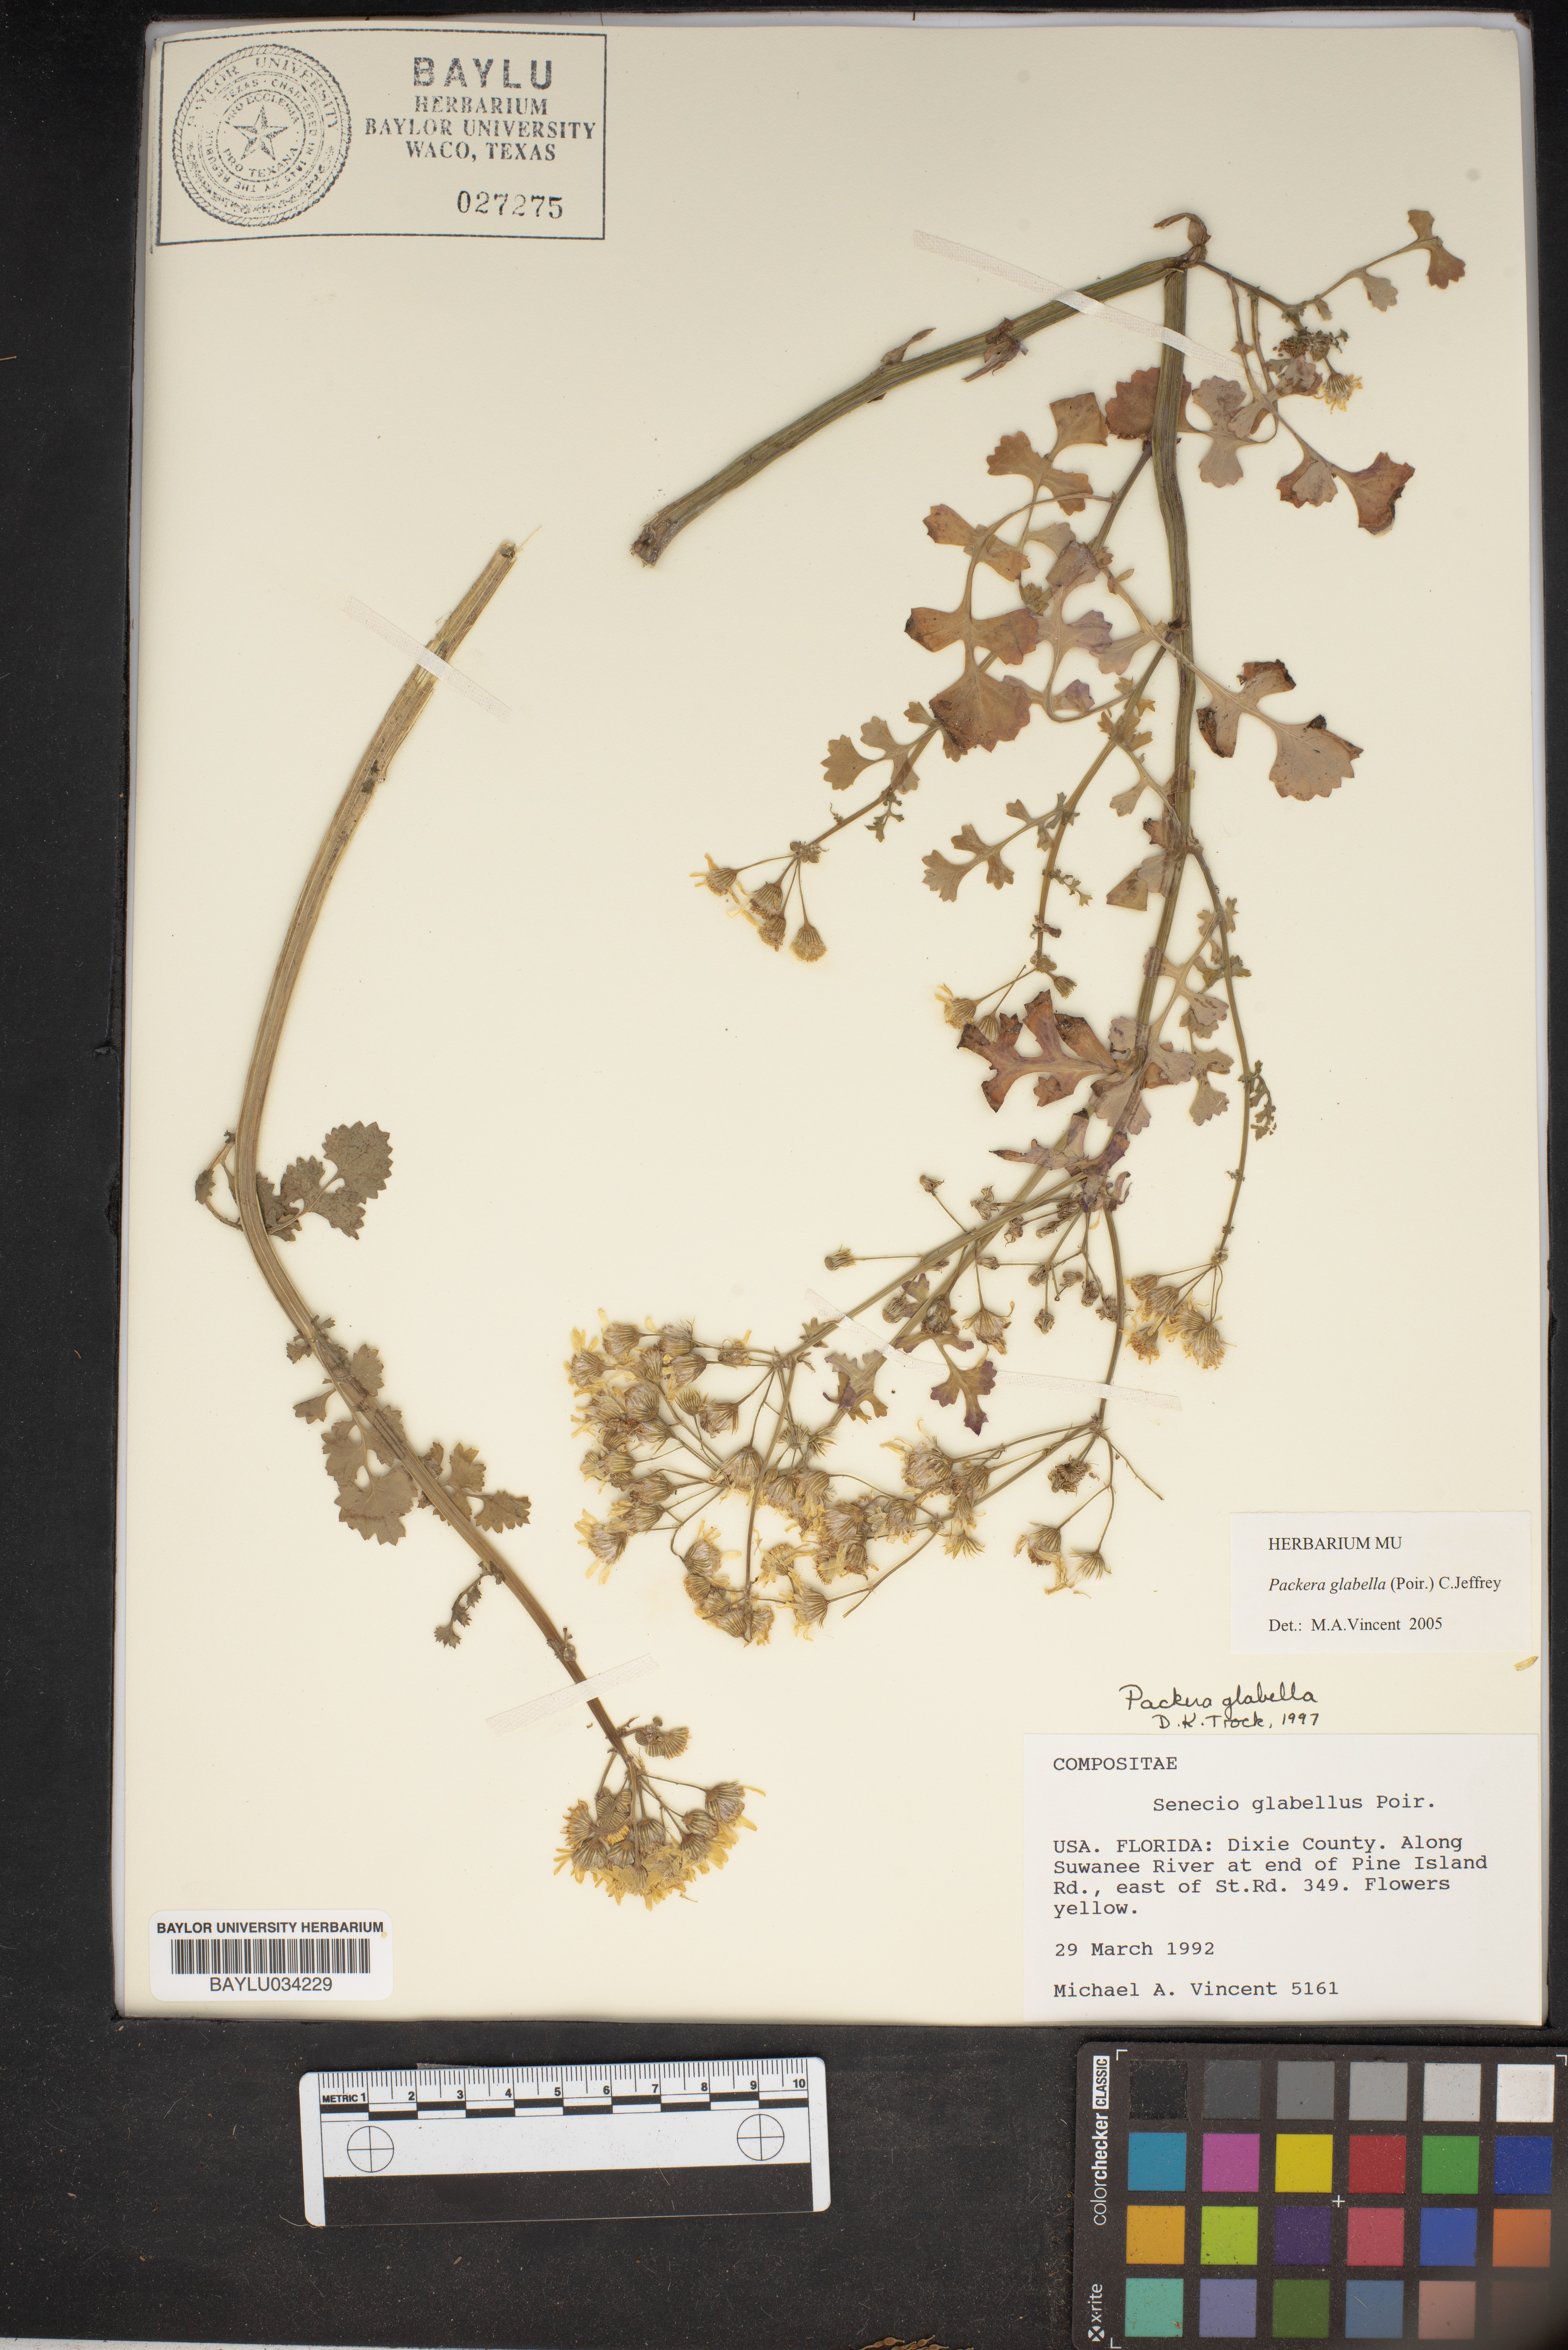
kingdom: Plantae
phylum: Tracheophyta
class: Magnoliopsida
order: Asterales
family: Asteraceae
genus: Packera
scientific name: Packera glabella
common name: Butterweed
